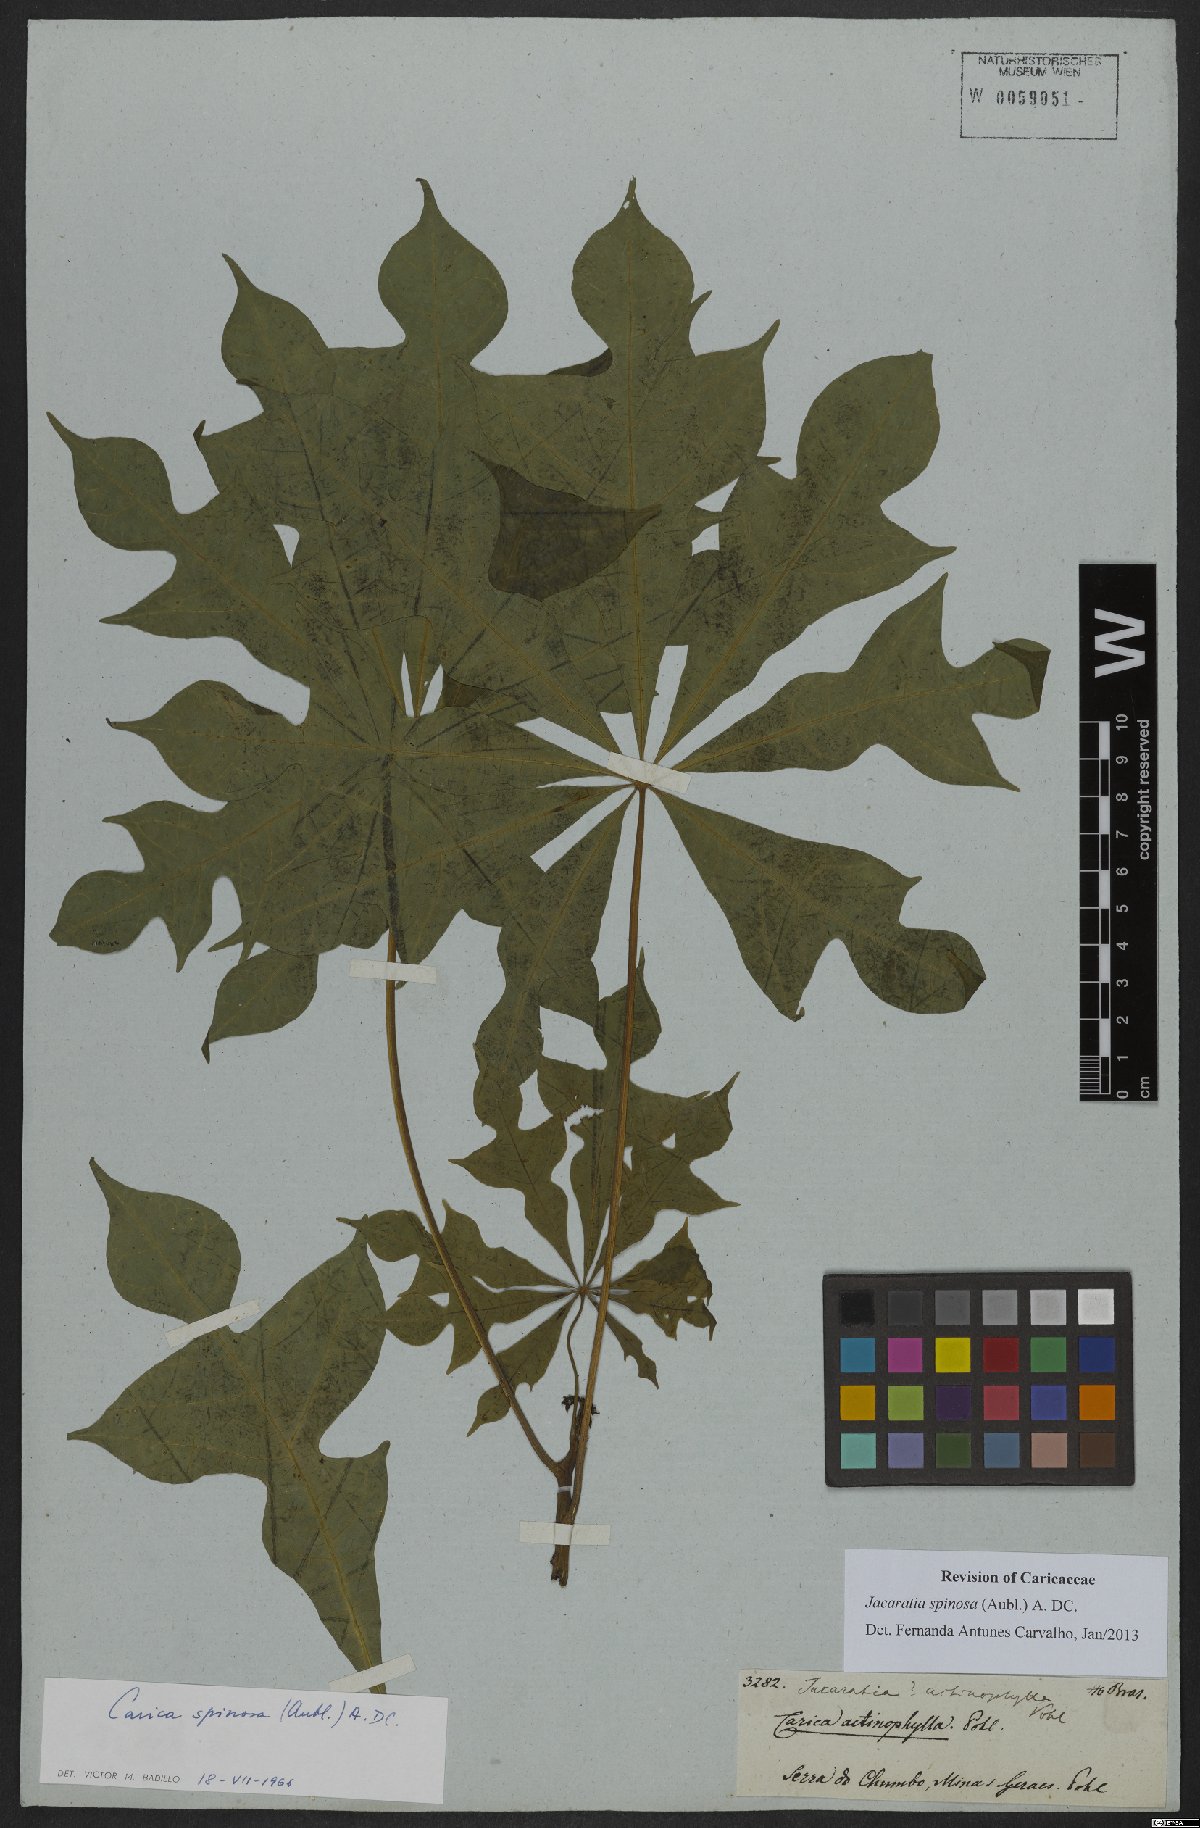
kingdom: Plantae
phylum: Tracheophyta
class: Magnoliopsida
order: Brassicales
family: Caricaceae
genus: Jacaratia
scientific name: Jacaratia spinosa
